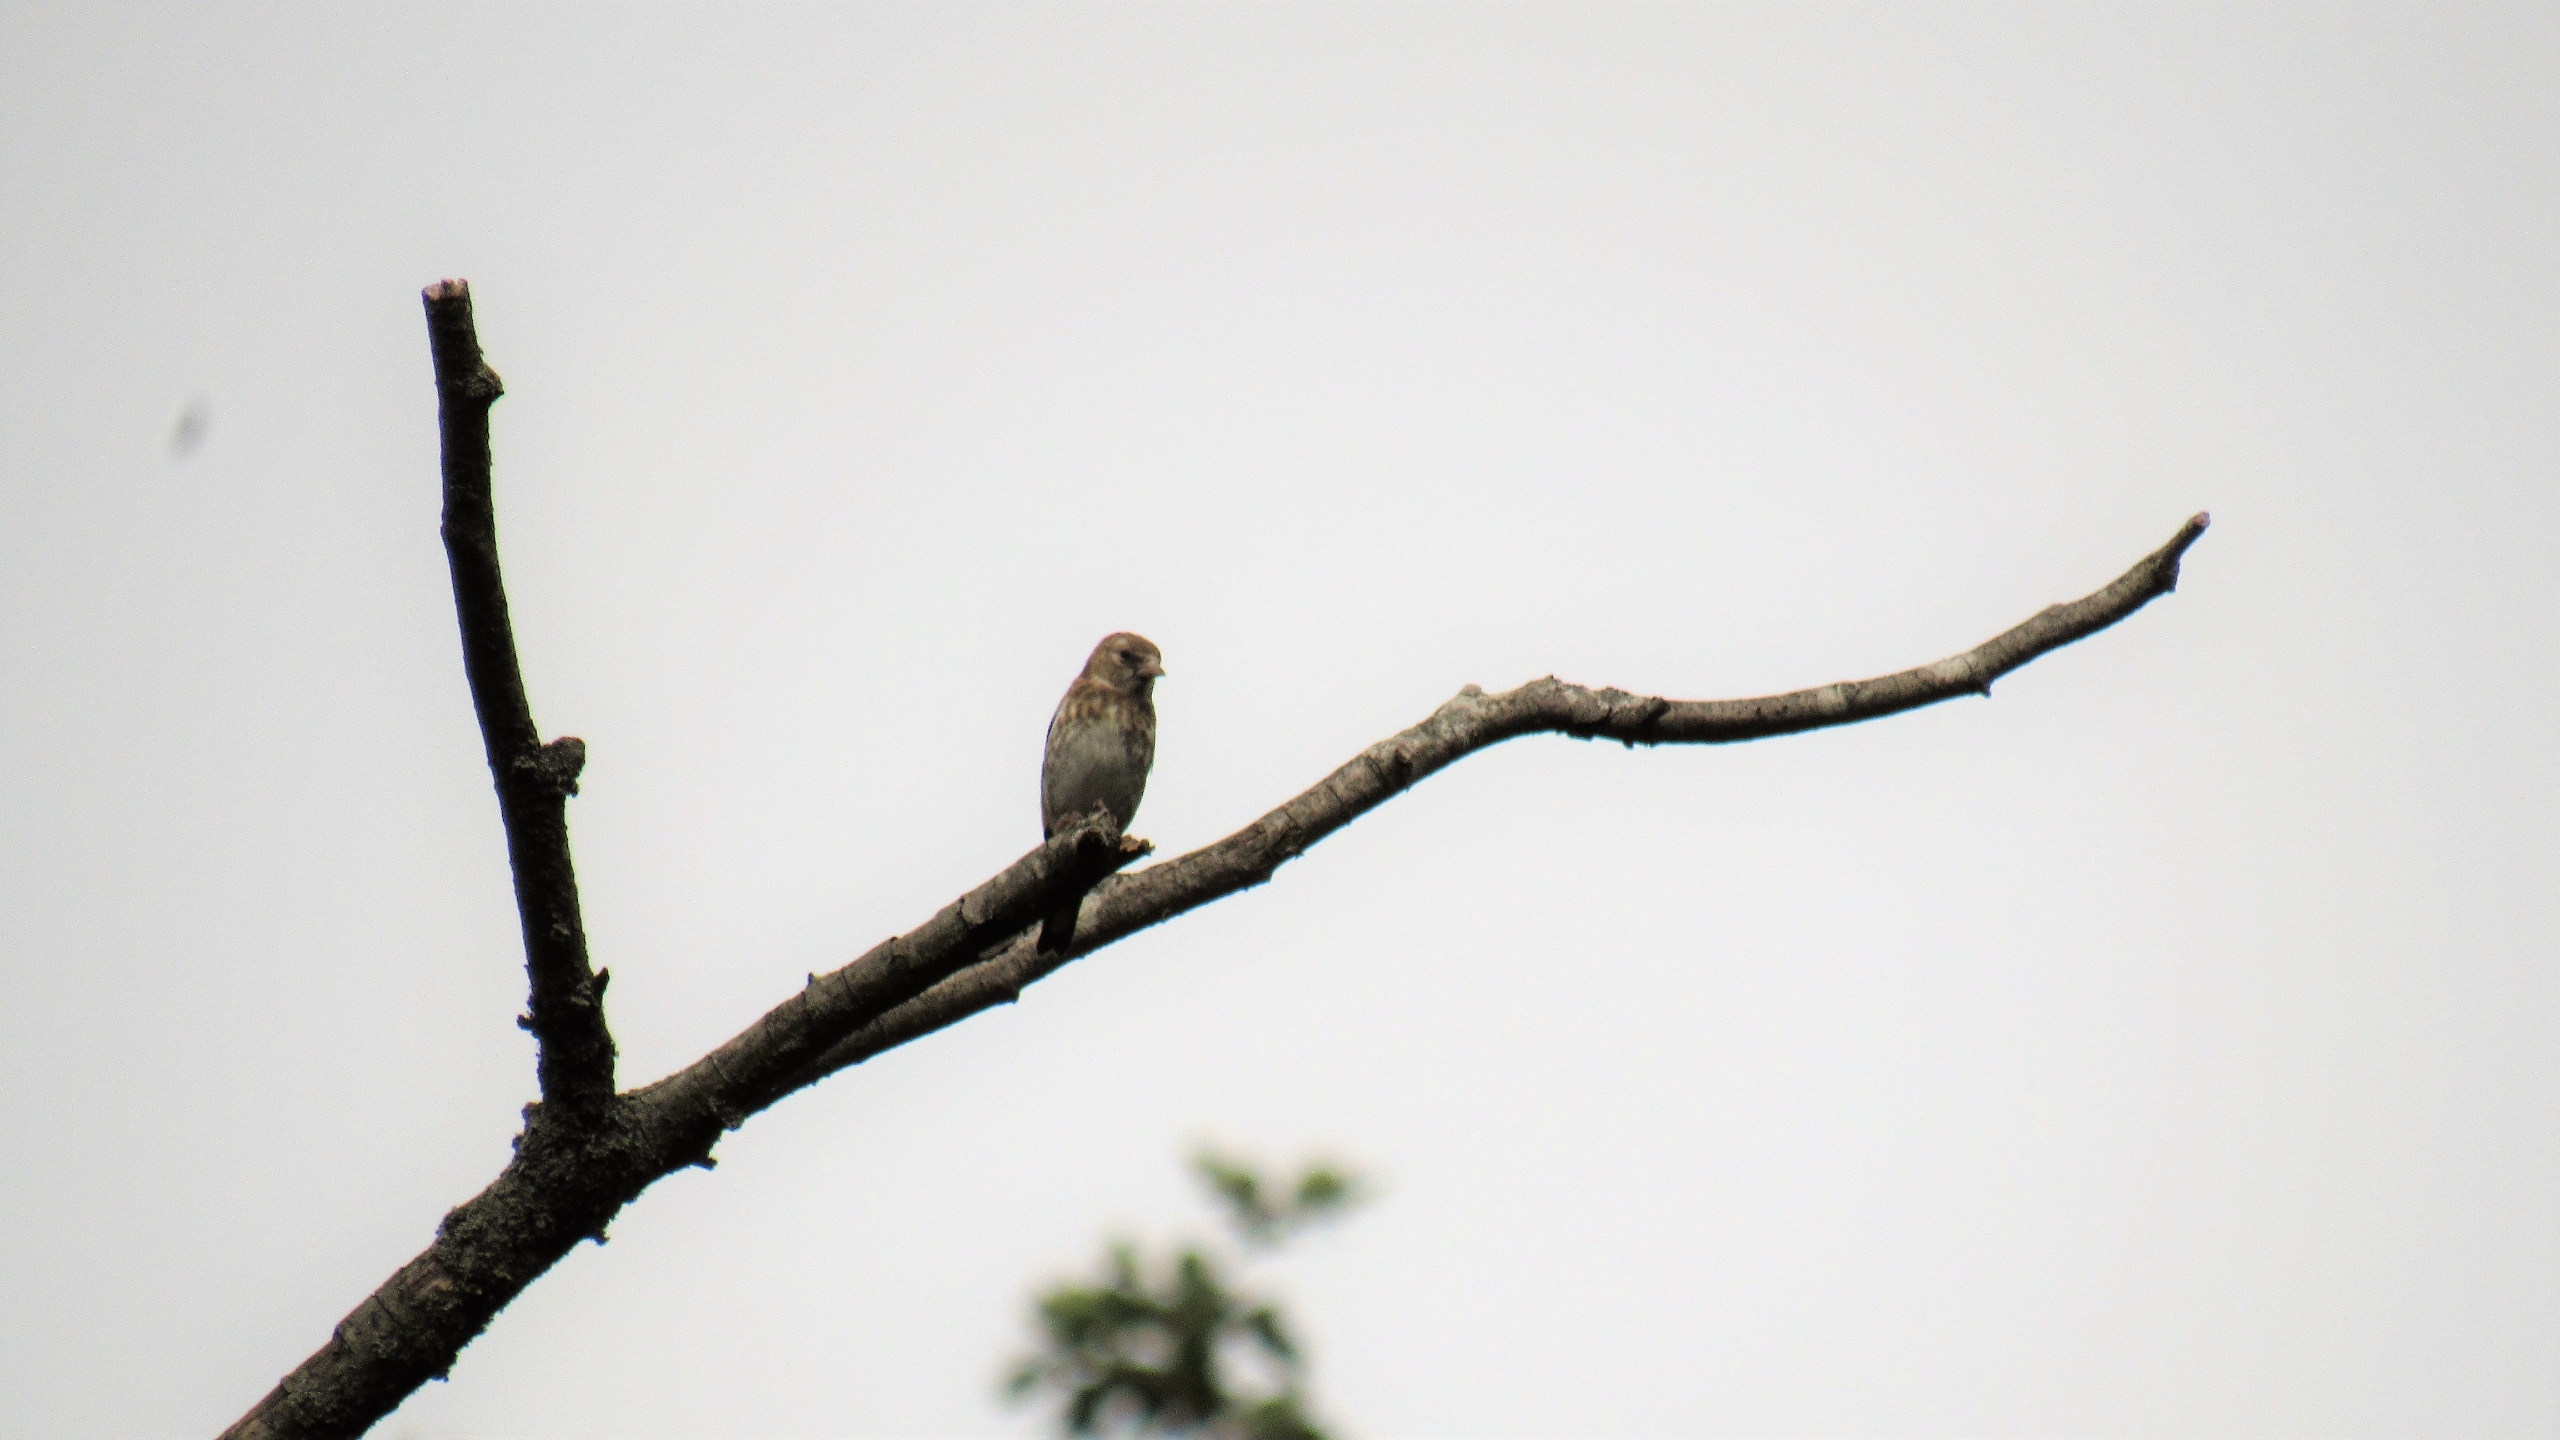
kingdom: Animalia
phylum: Chordata
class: Aves
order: Passeriformes
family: Fringillidae
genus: Carduelis
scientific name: Carduelis carduelis
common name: Stillits
